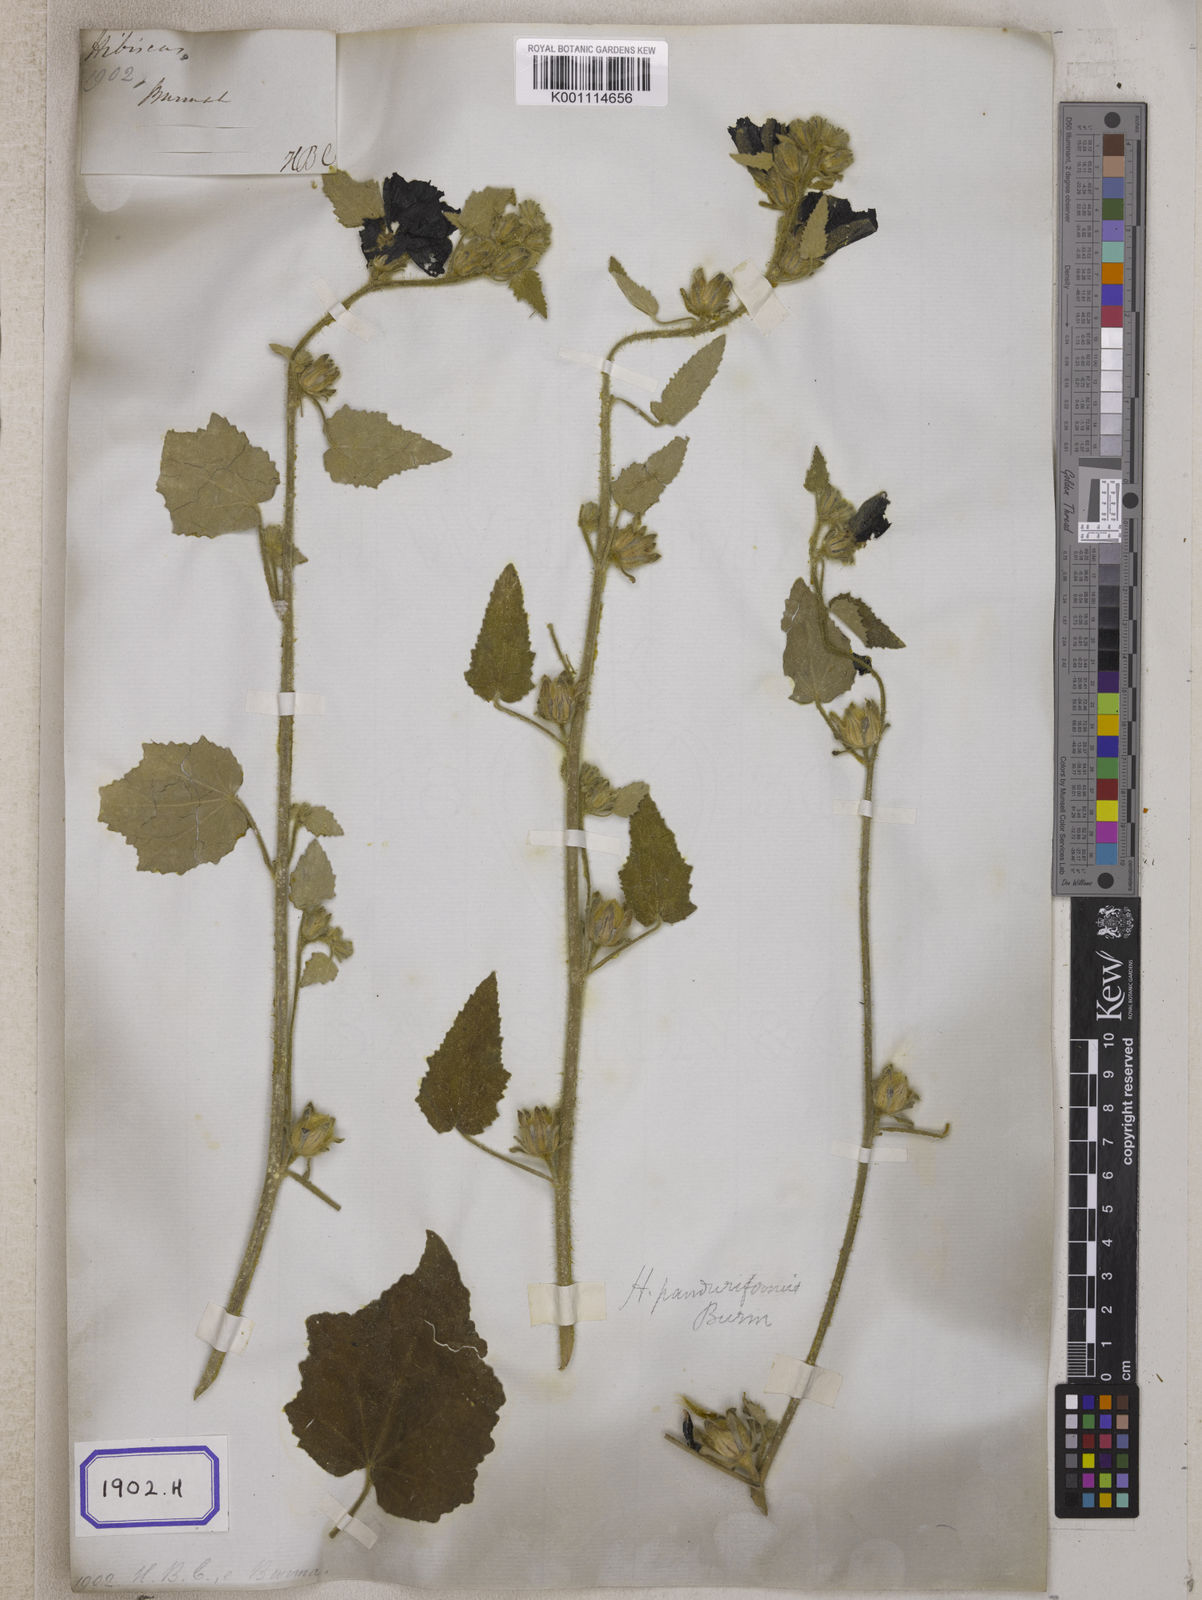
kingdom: Plantae
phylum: Tracheophyta
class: Magnoliopsida
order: Malvales
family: Malvaceae
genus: Talipariti
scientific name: Talipariti macrophyllum
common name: Largeleaf rosemallow
